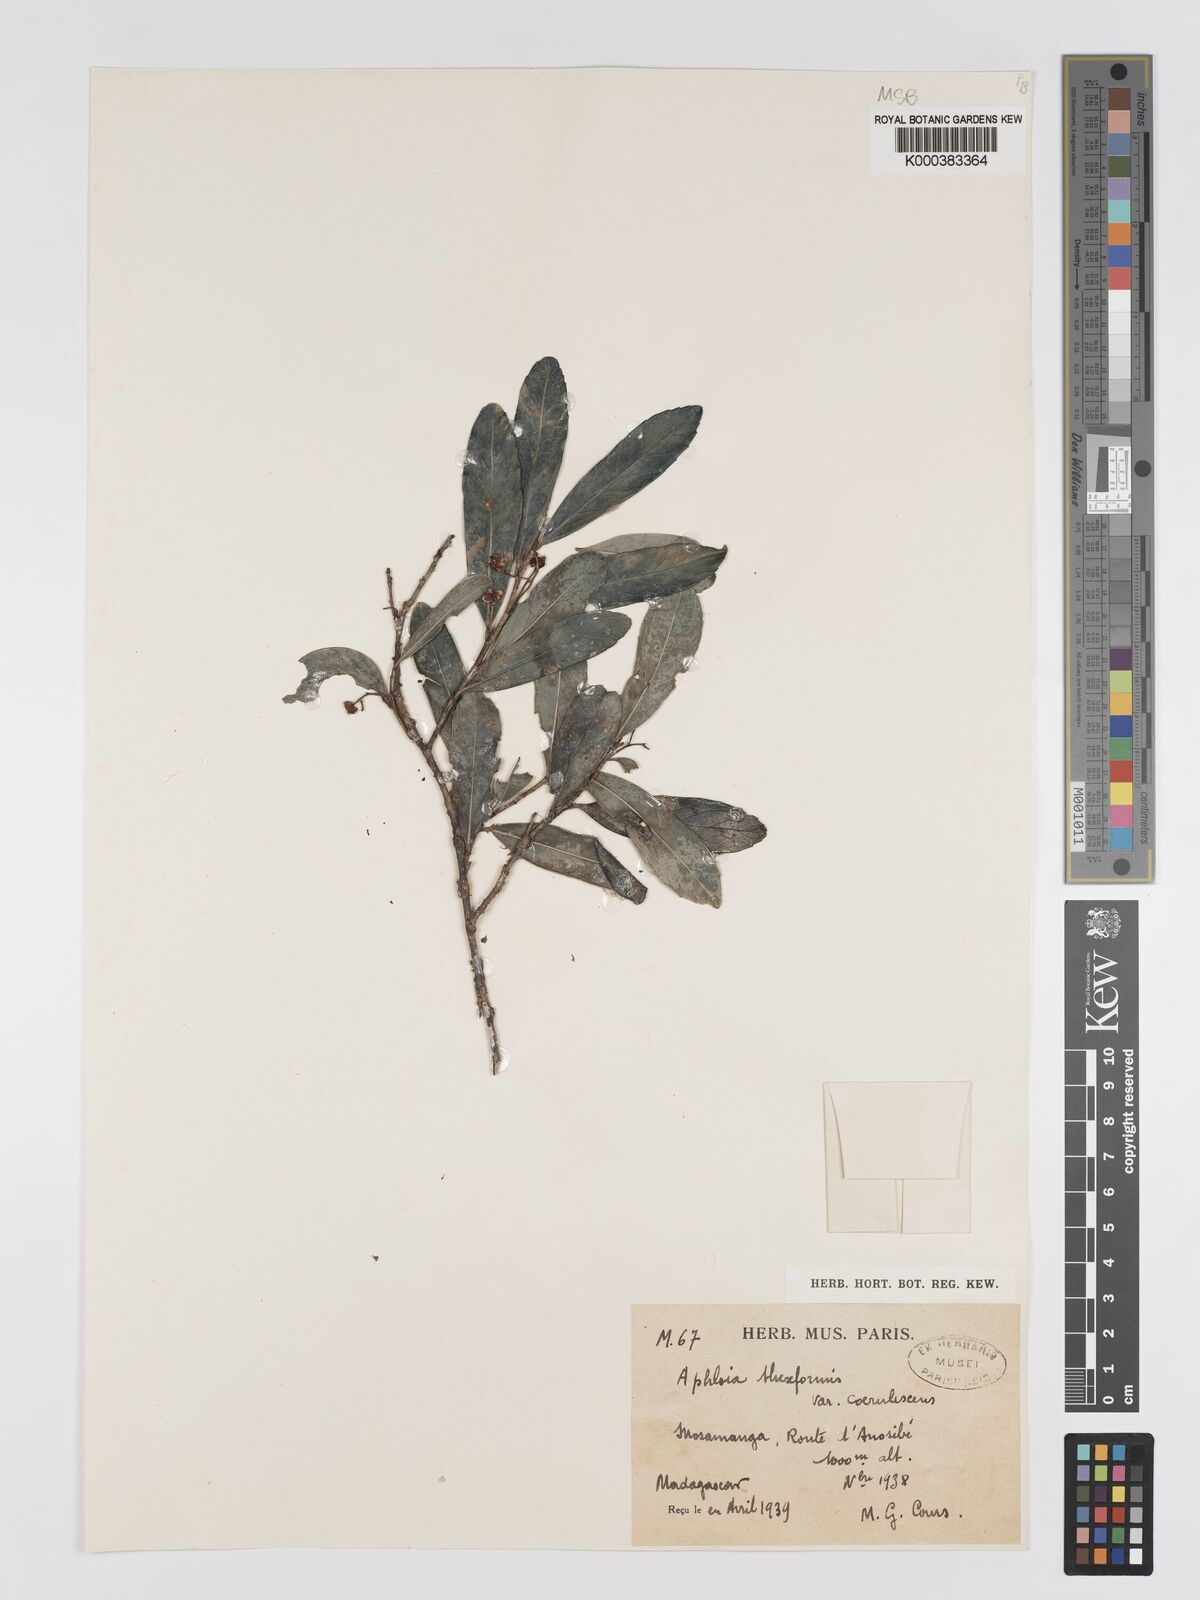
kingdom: Plantae
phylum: Tracheophyta
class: Magnoliopsida
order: Crossosomatales
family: Aphloiaceae
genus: Aphloia
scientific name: Aphloia theiformis
